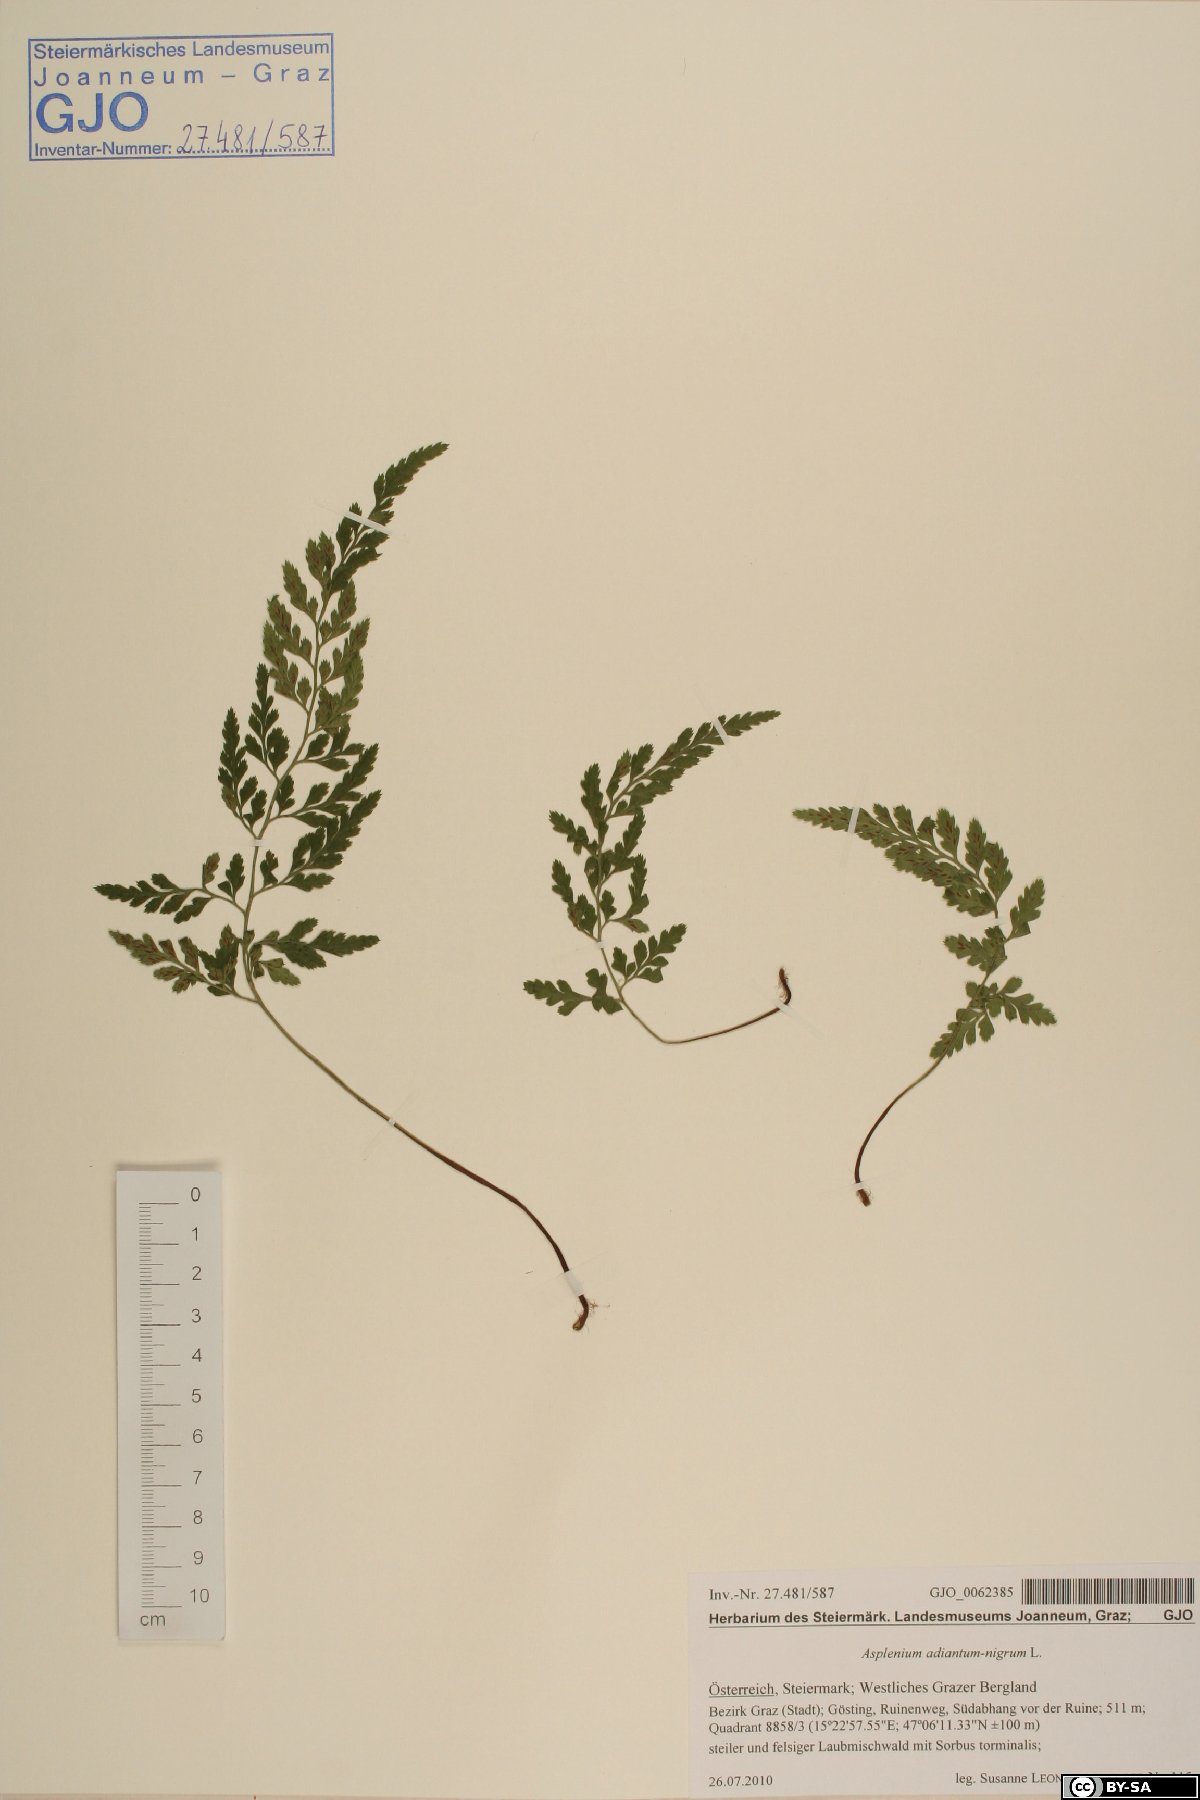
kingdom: Plantae
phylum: Tracheophyta
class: Polypodiopsida
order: Polypodiales
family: Aspleniaceae
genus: Asplenium
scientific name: Asplenium adiantum-nigrum
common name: Black spleenwort
